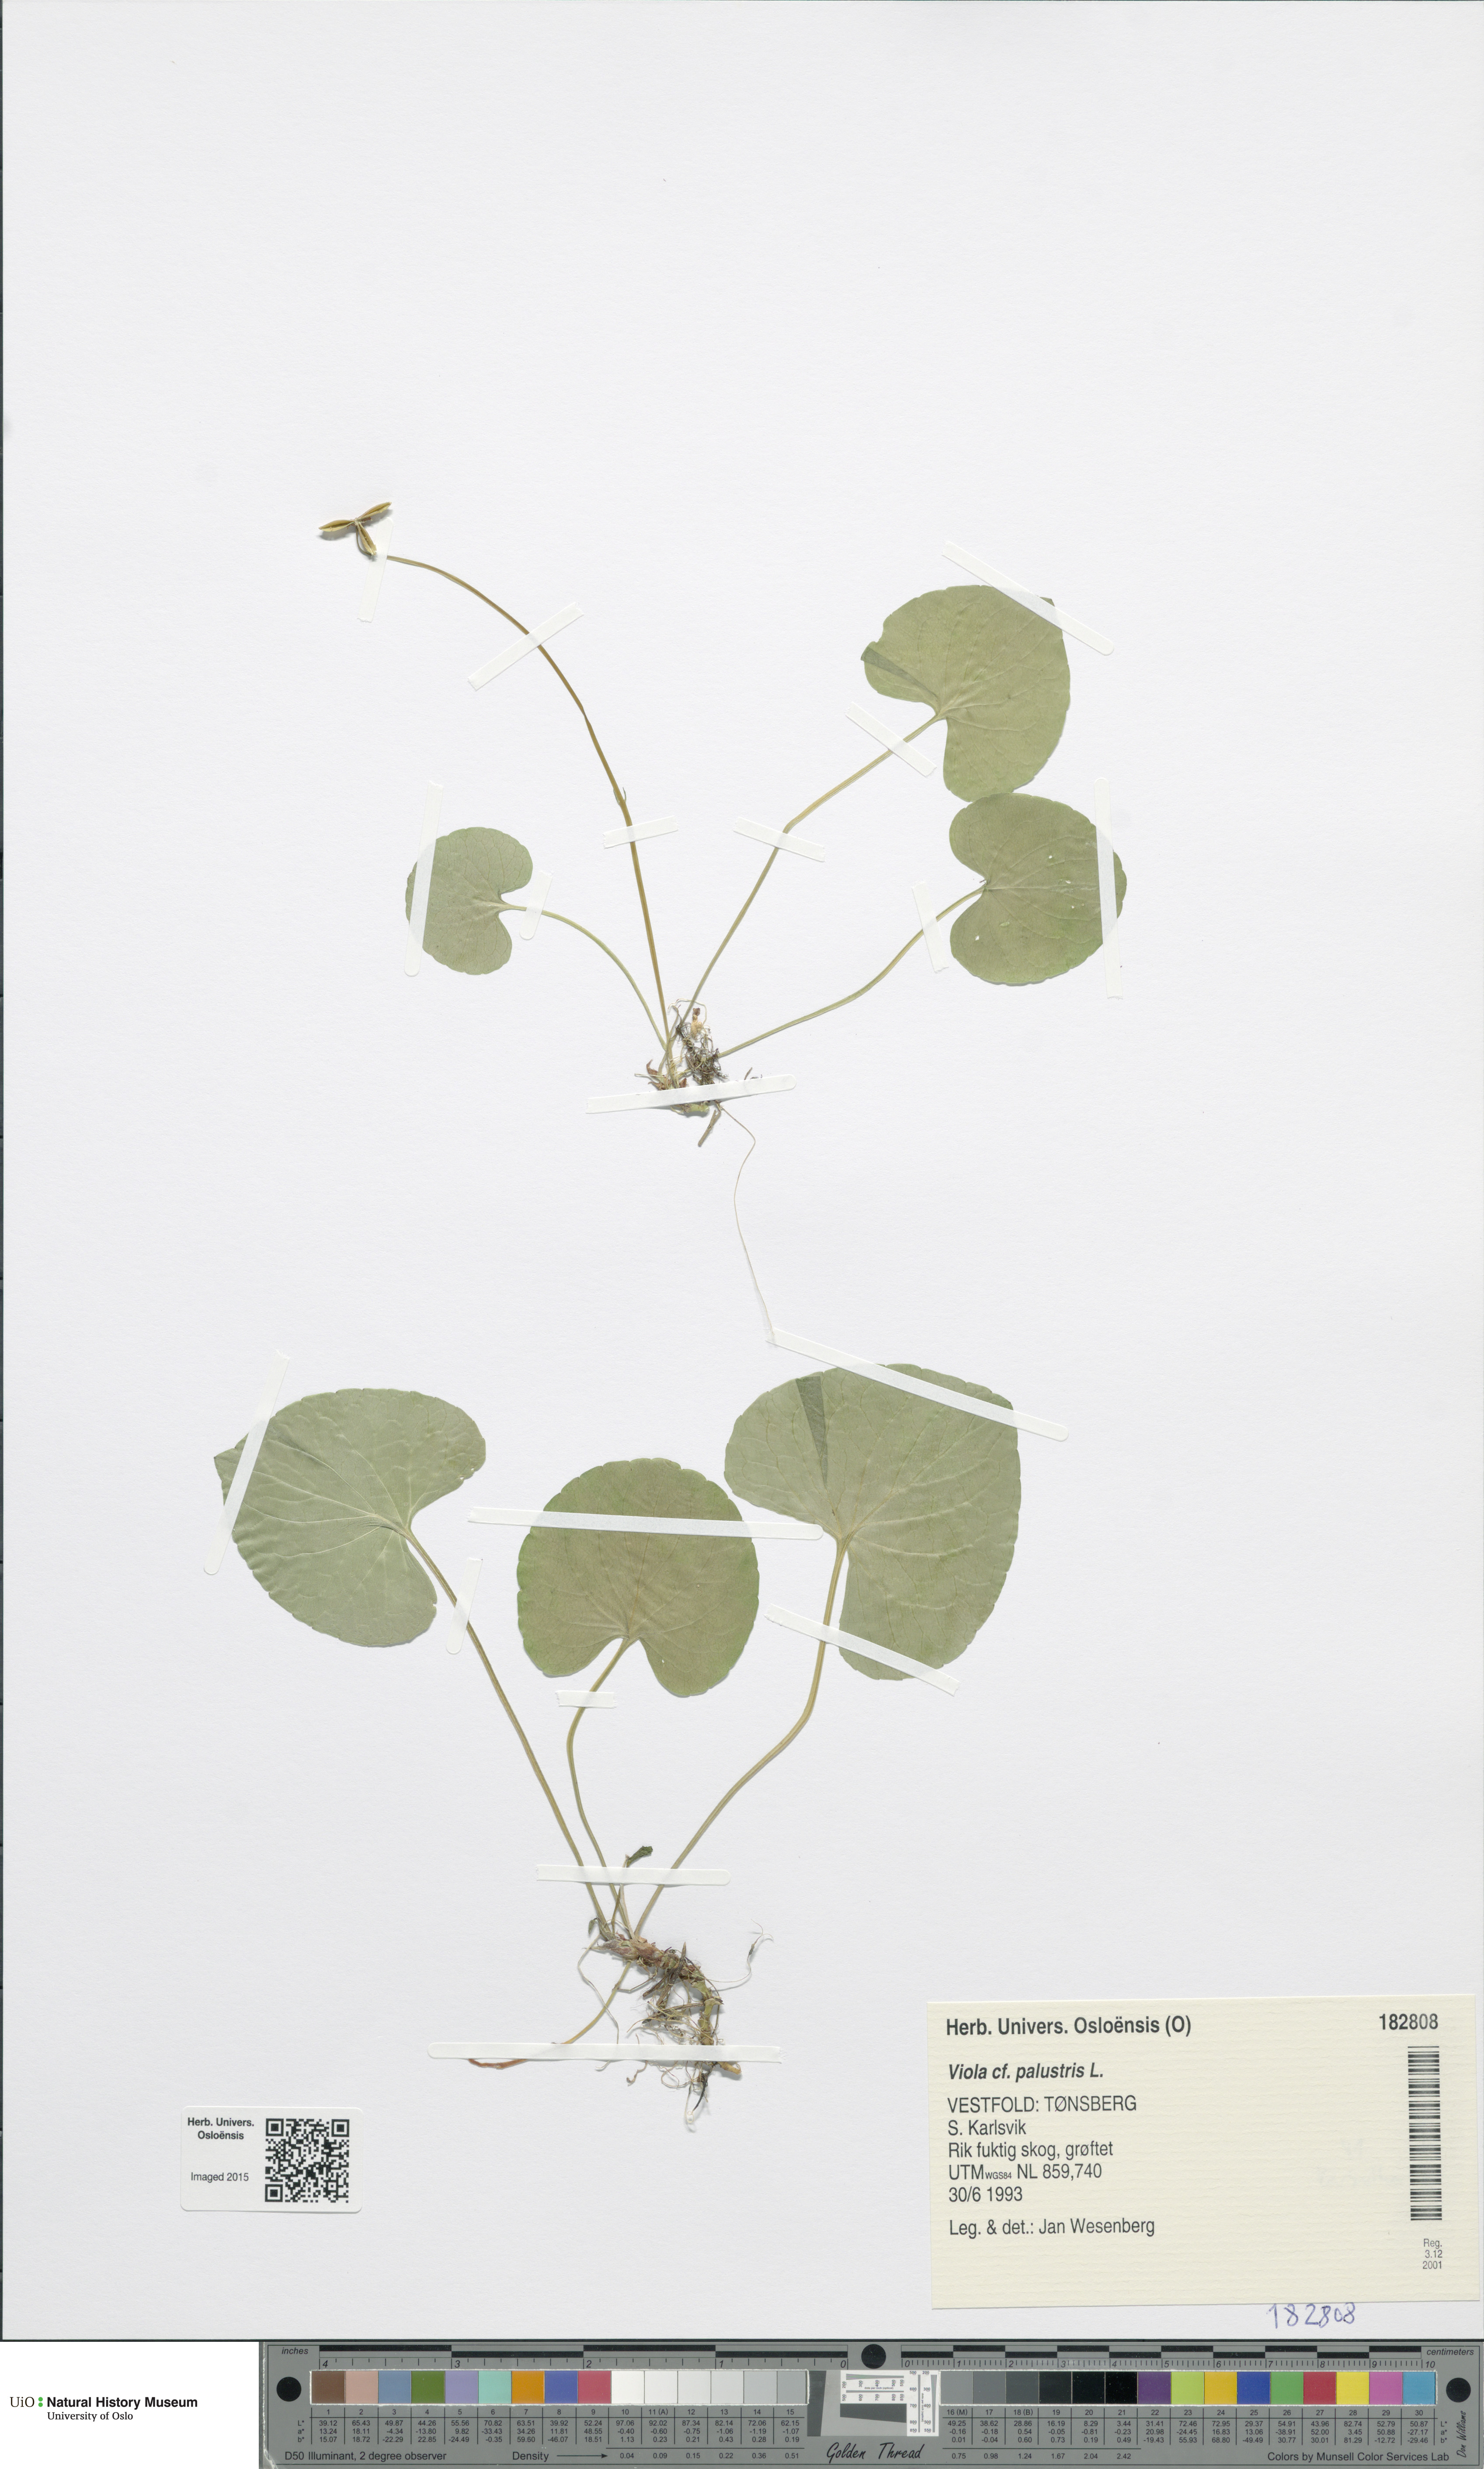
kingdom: Plantae
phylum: Tracheophyta
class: Magnoliopsida
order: Malpighiales
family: Violaceae
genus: Viola
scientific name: Viola palustris
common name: Marsh violet
